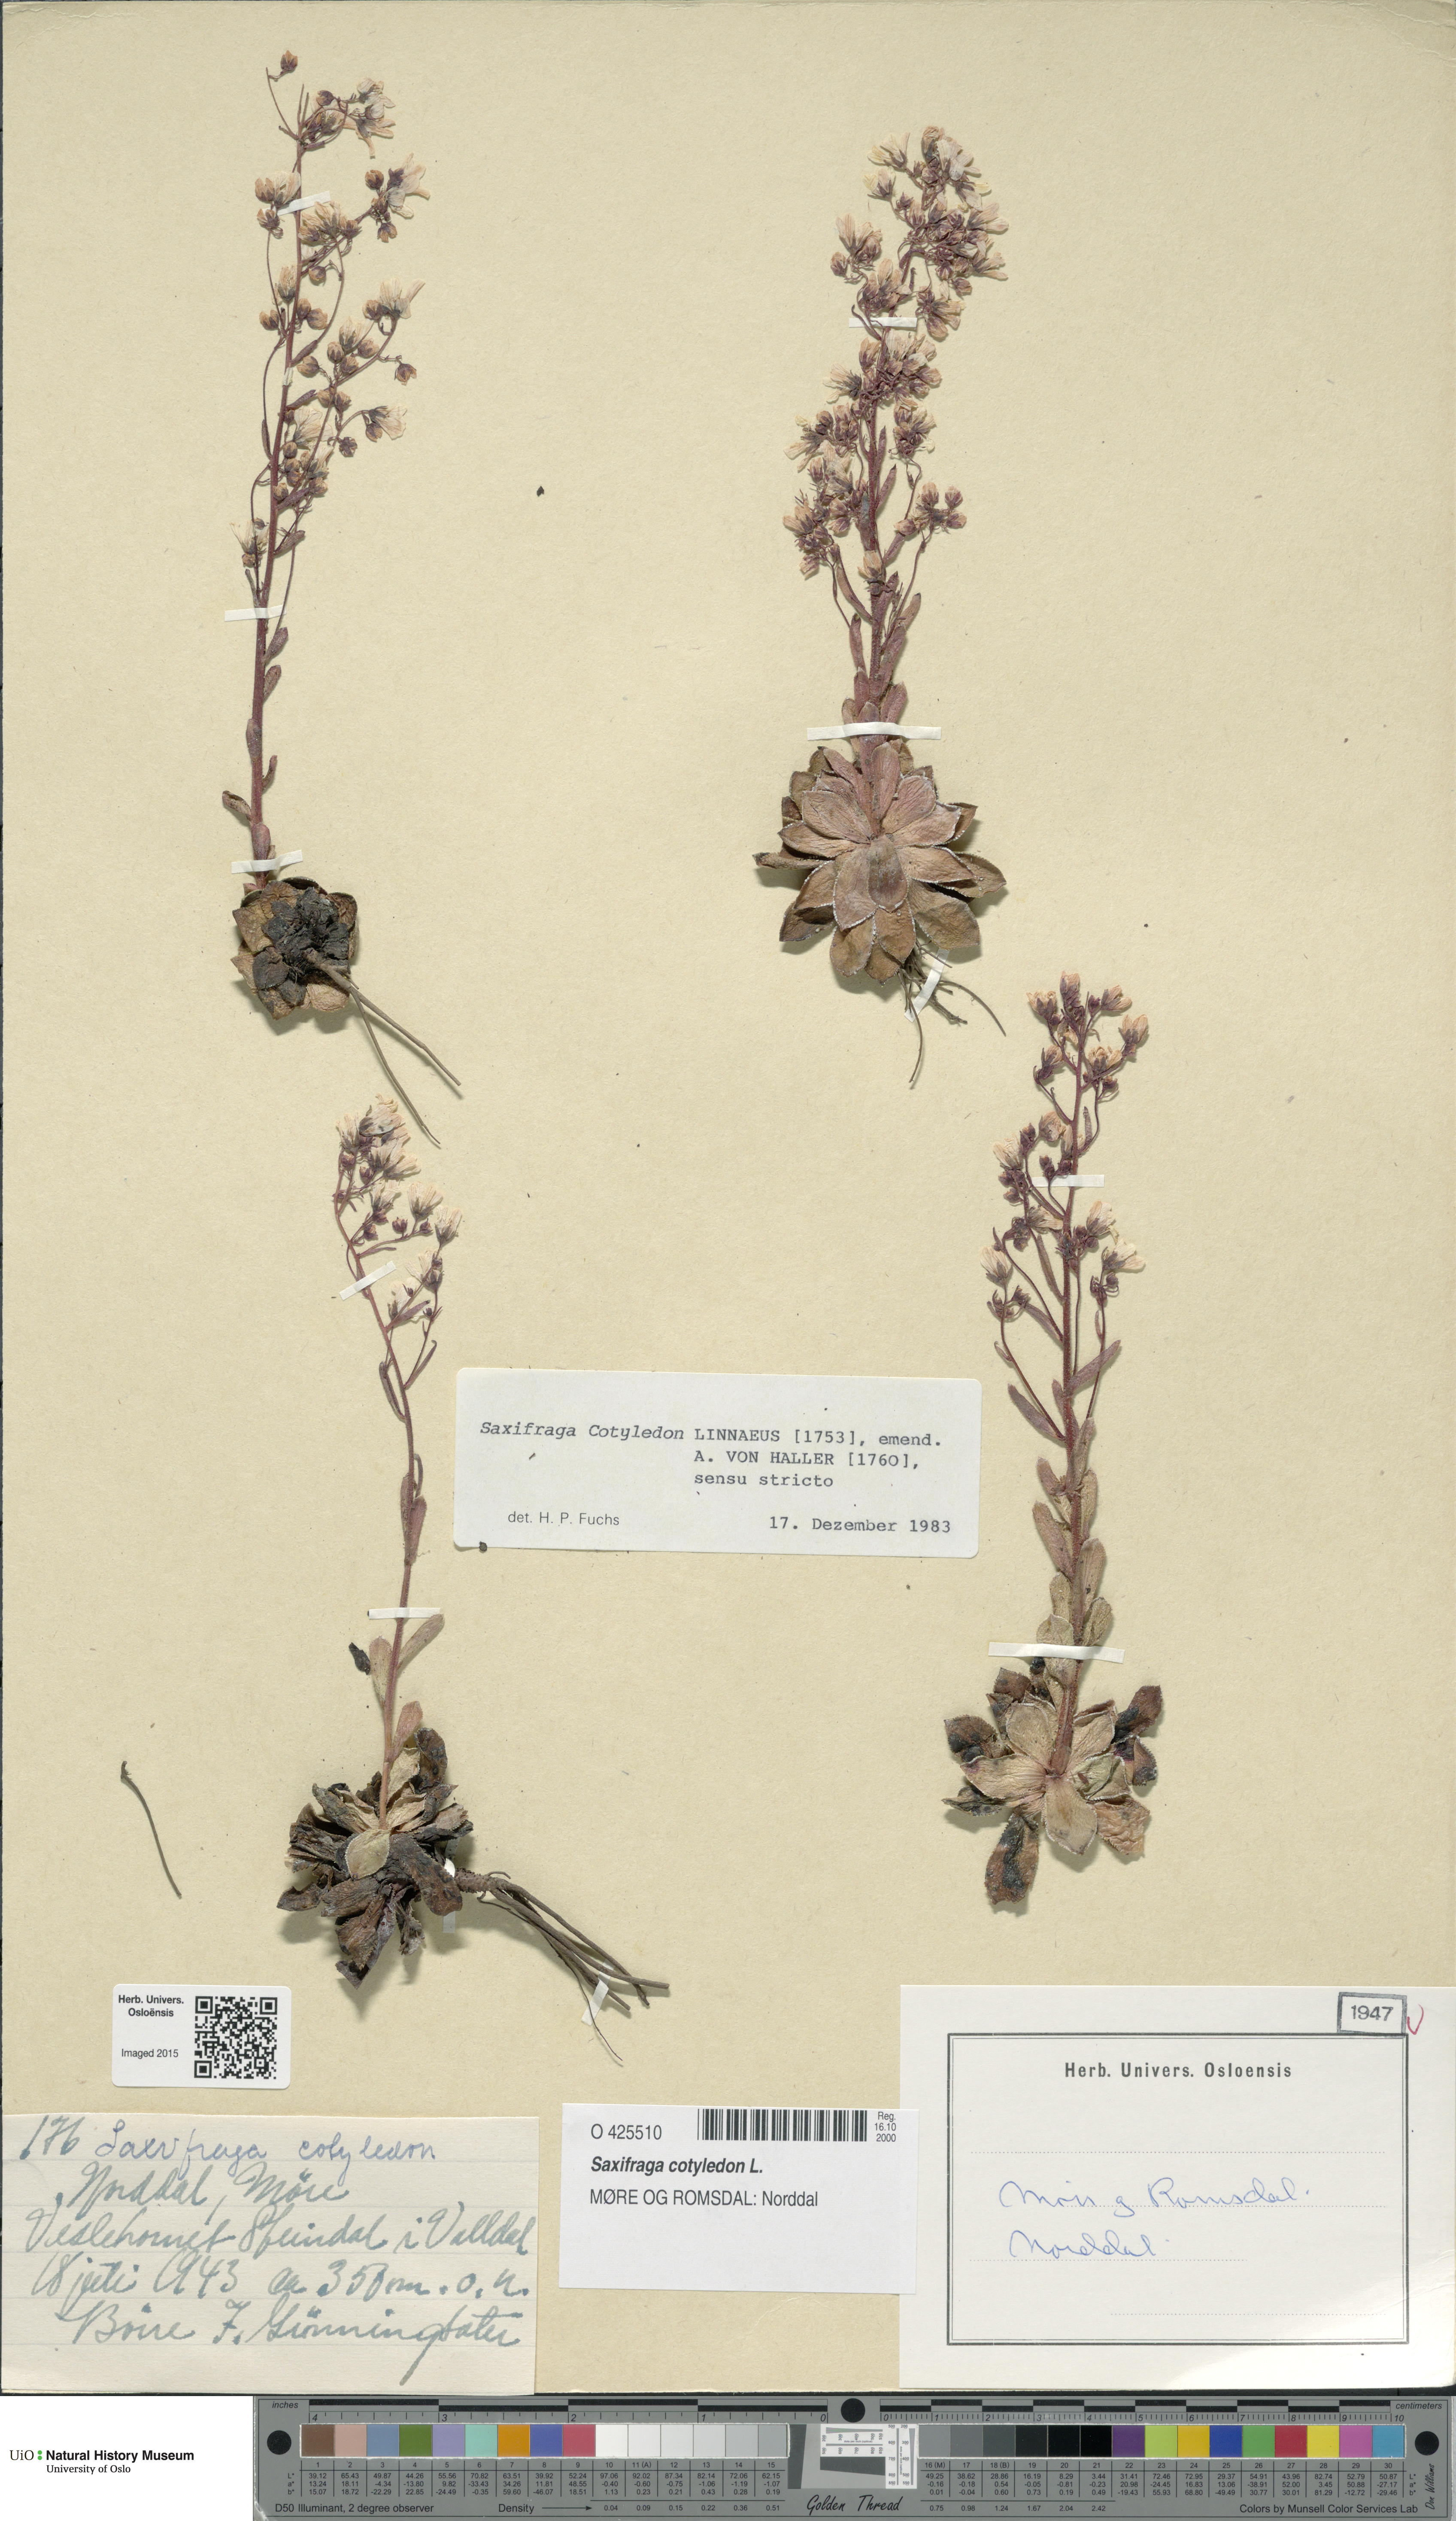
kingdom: Plantae
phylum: Tracheophyta
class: Magnoliopsida
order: Saxifragales
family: Saxifragaceae
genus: Saxifraga
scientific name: Saxifraga cotyledon
